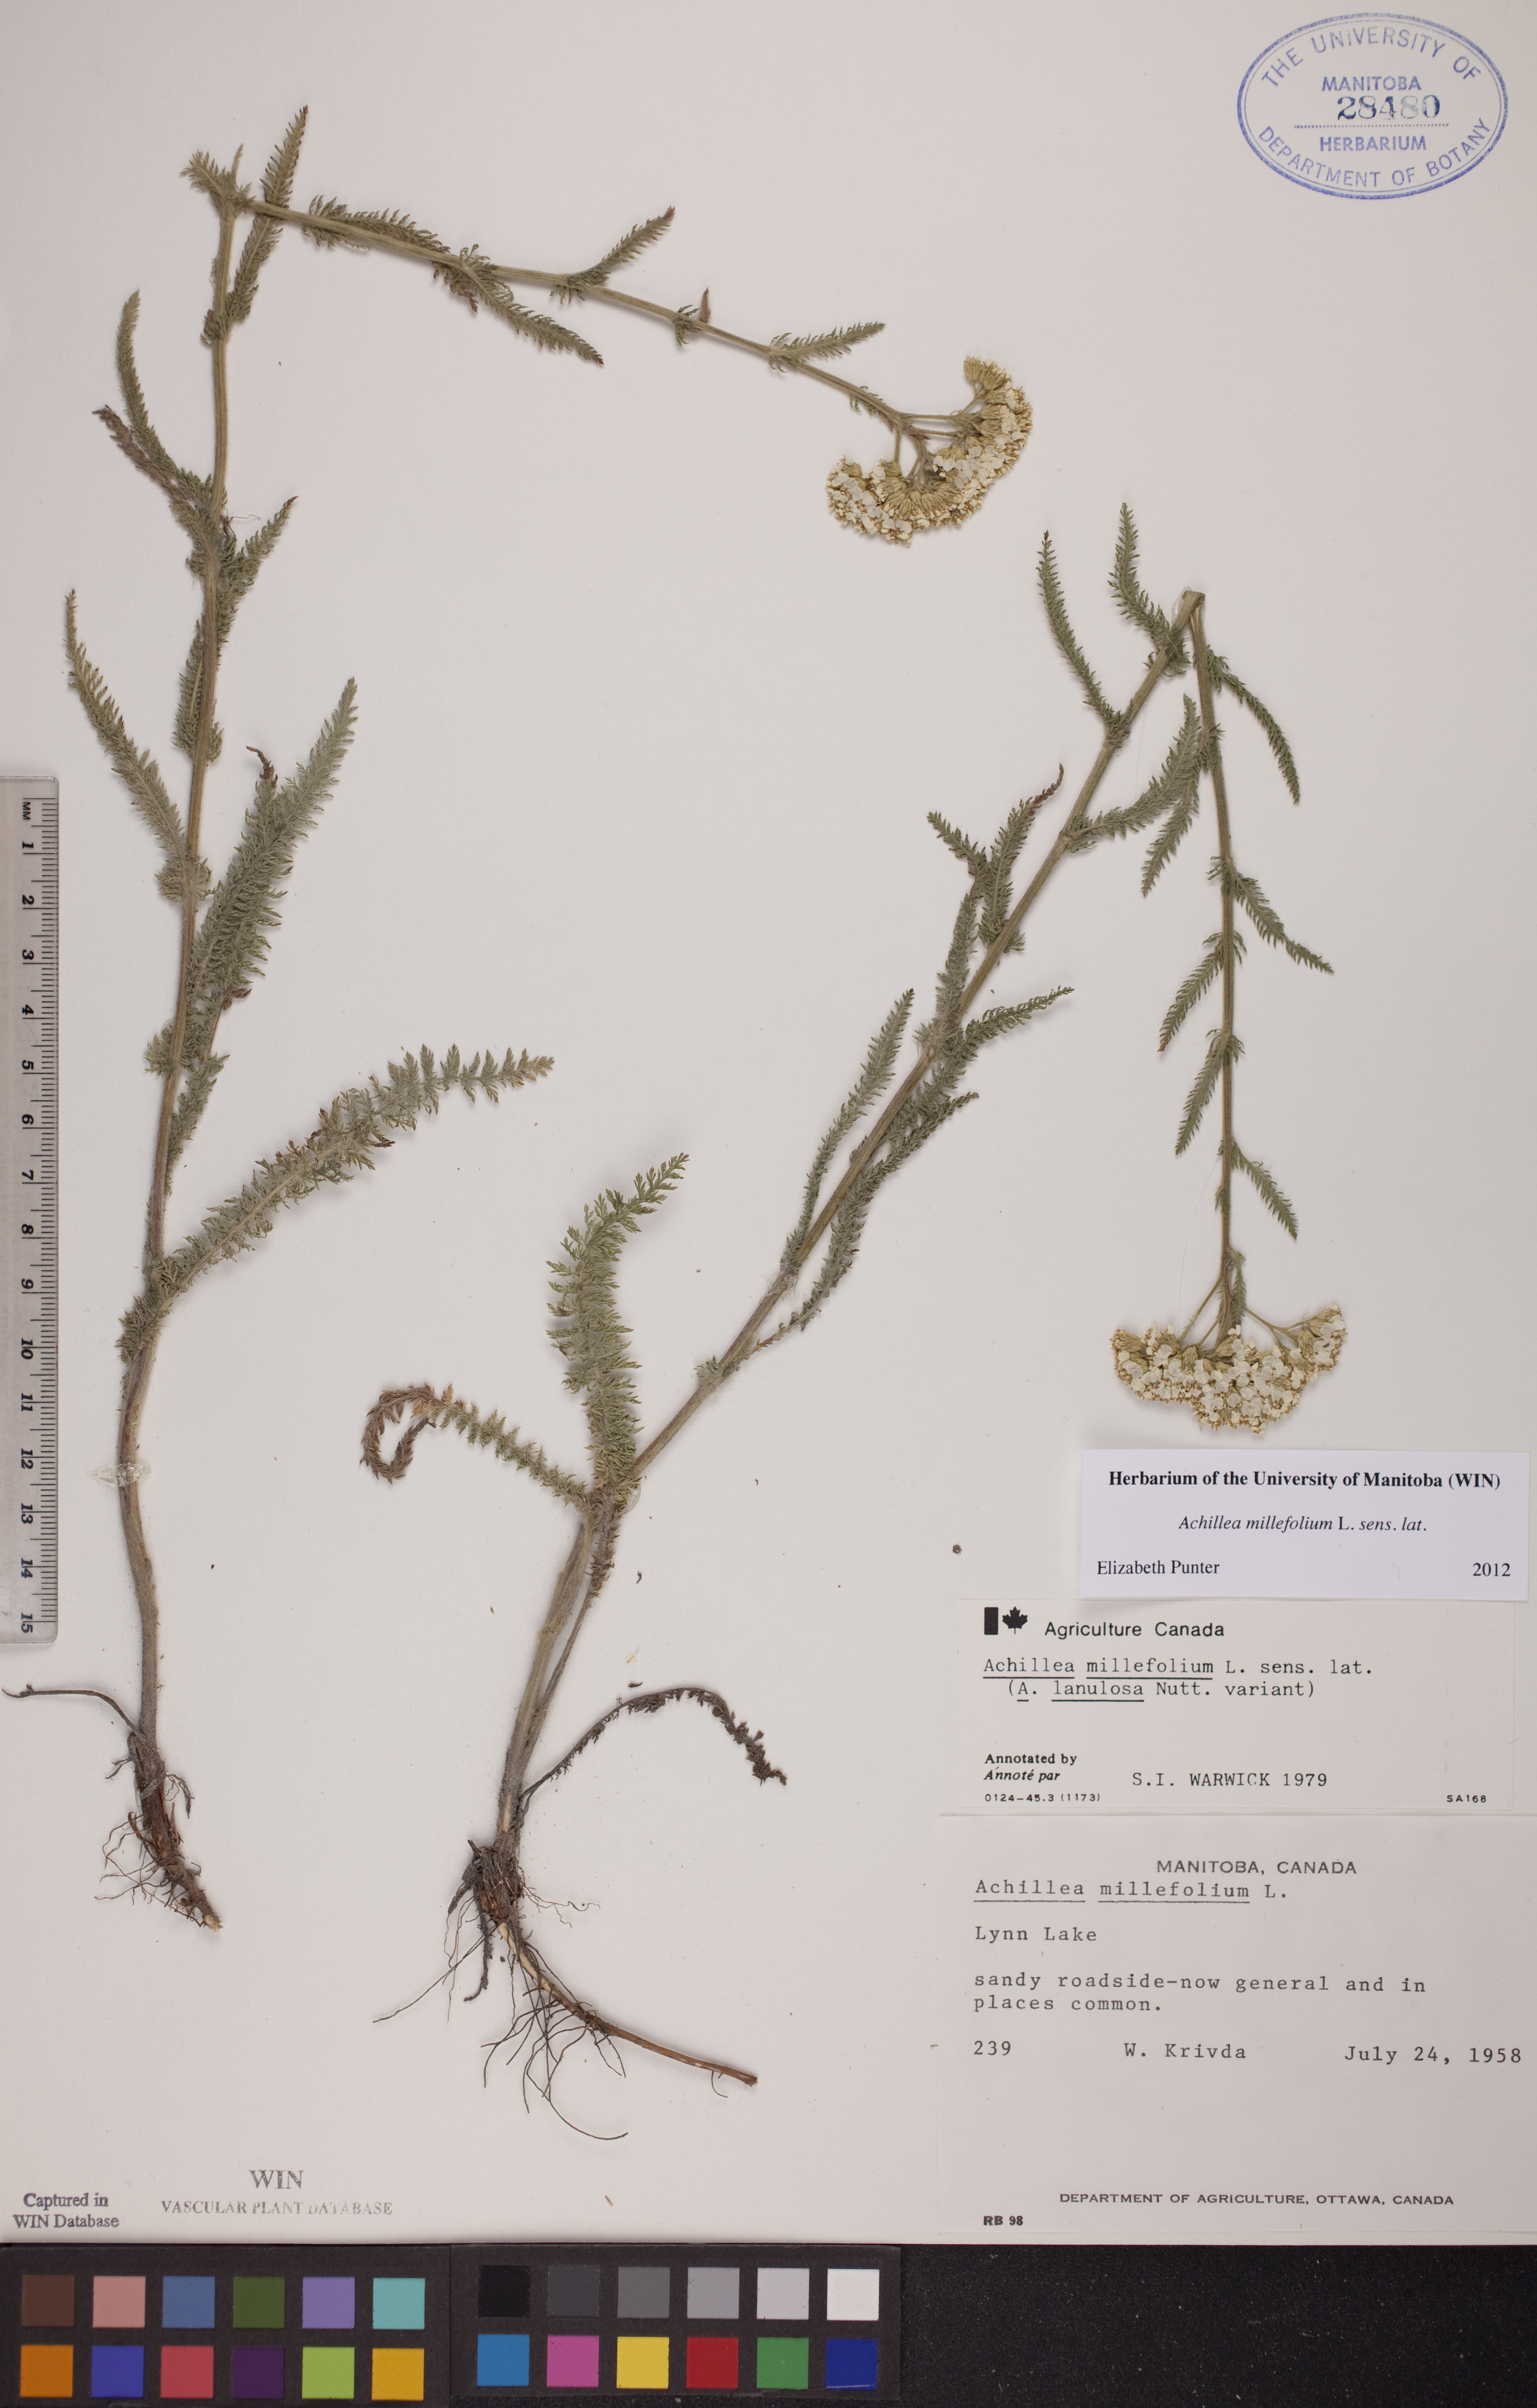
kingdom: Plantae
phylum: Tracheophyta
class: Magnoliopsida
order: Asterales
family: Asteraceae
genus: Achillea
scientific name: Achillea millefolium
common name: Yarrow
